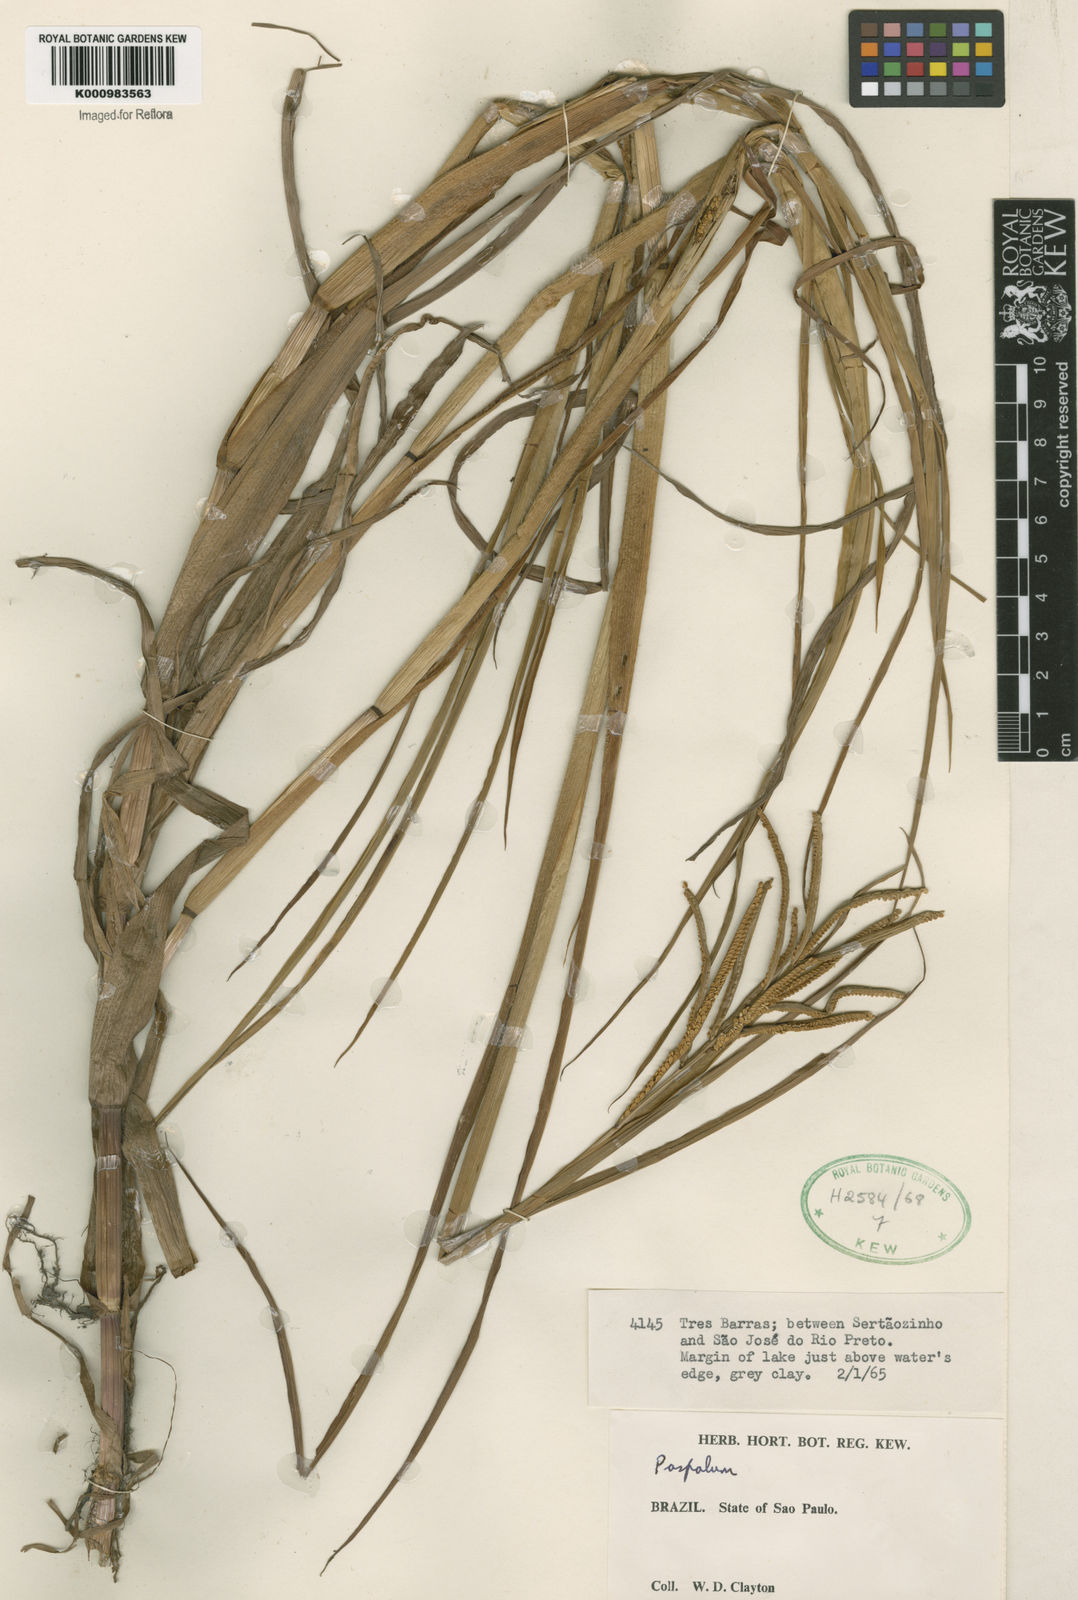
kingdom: Plantae
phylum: Tracheophyta
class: Liliopsida
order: Poales
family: Poaceae
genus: Paspalum
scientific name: Paspalum scrobiculatum
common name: Kodo millet
